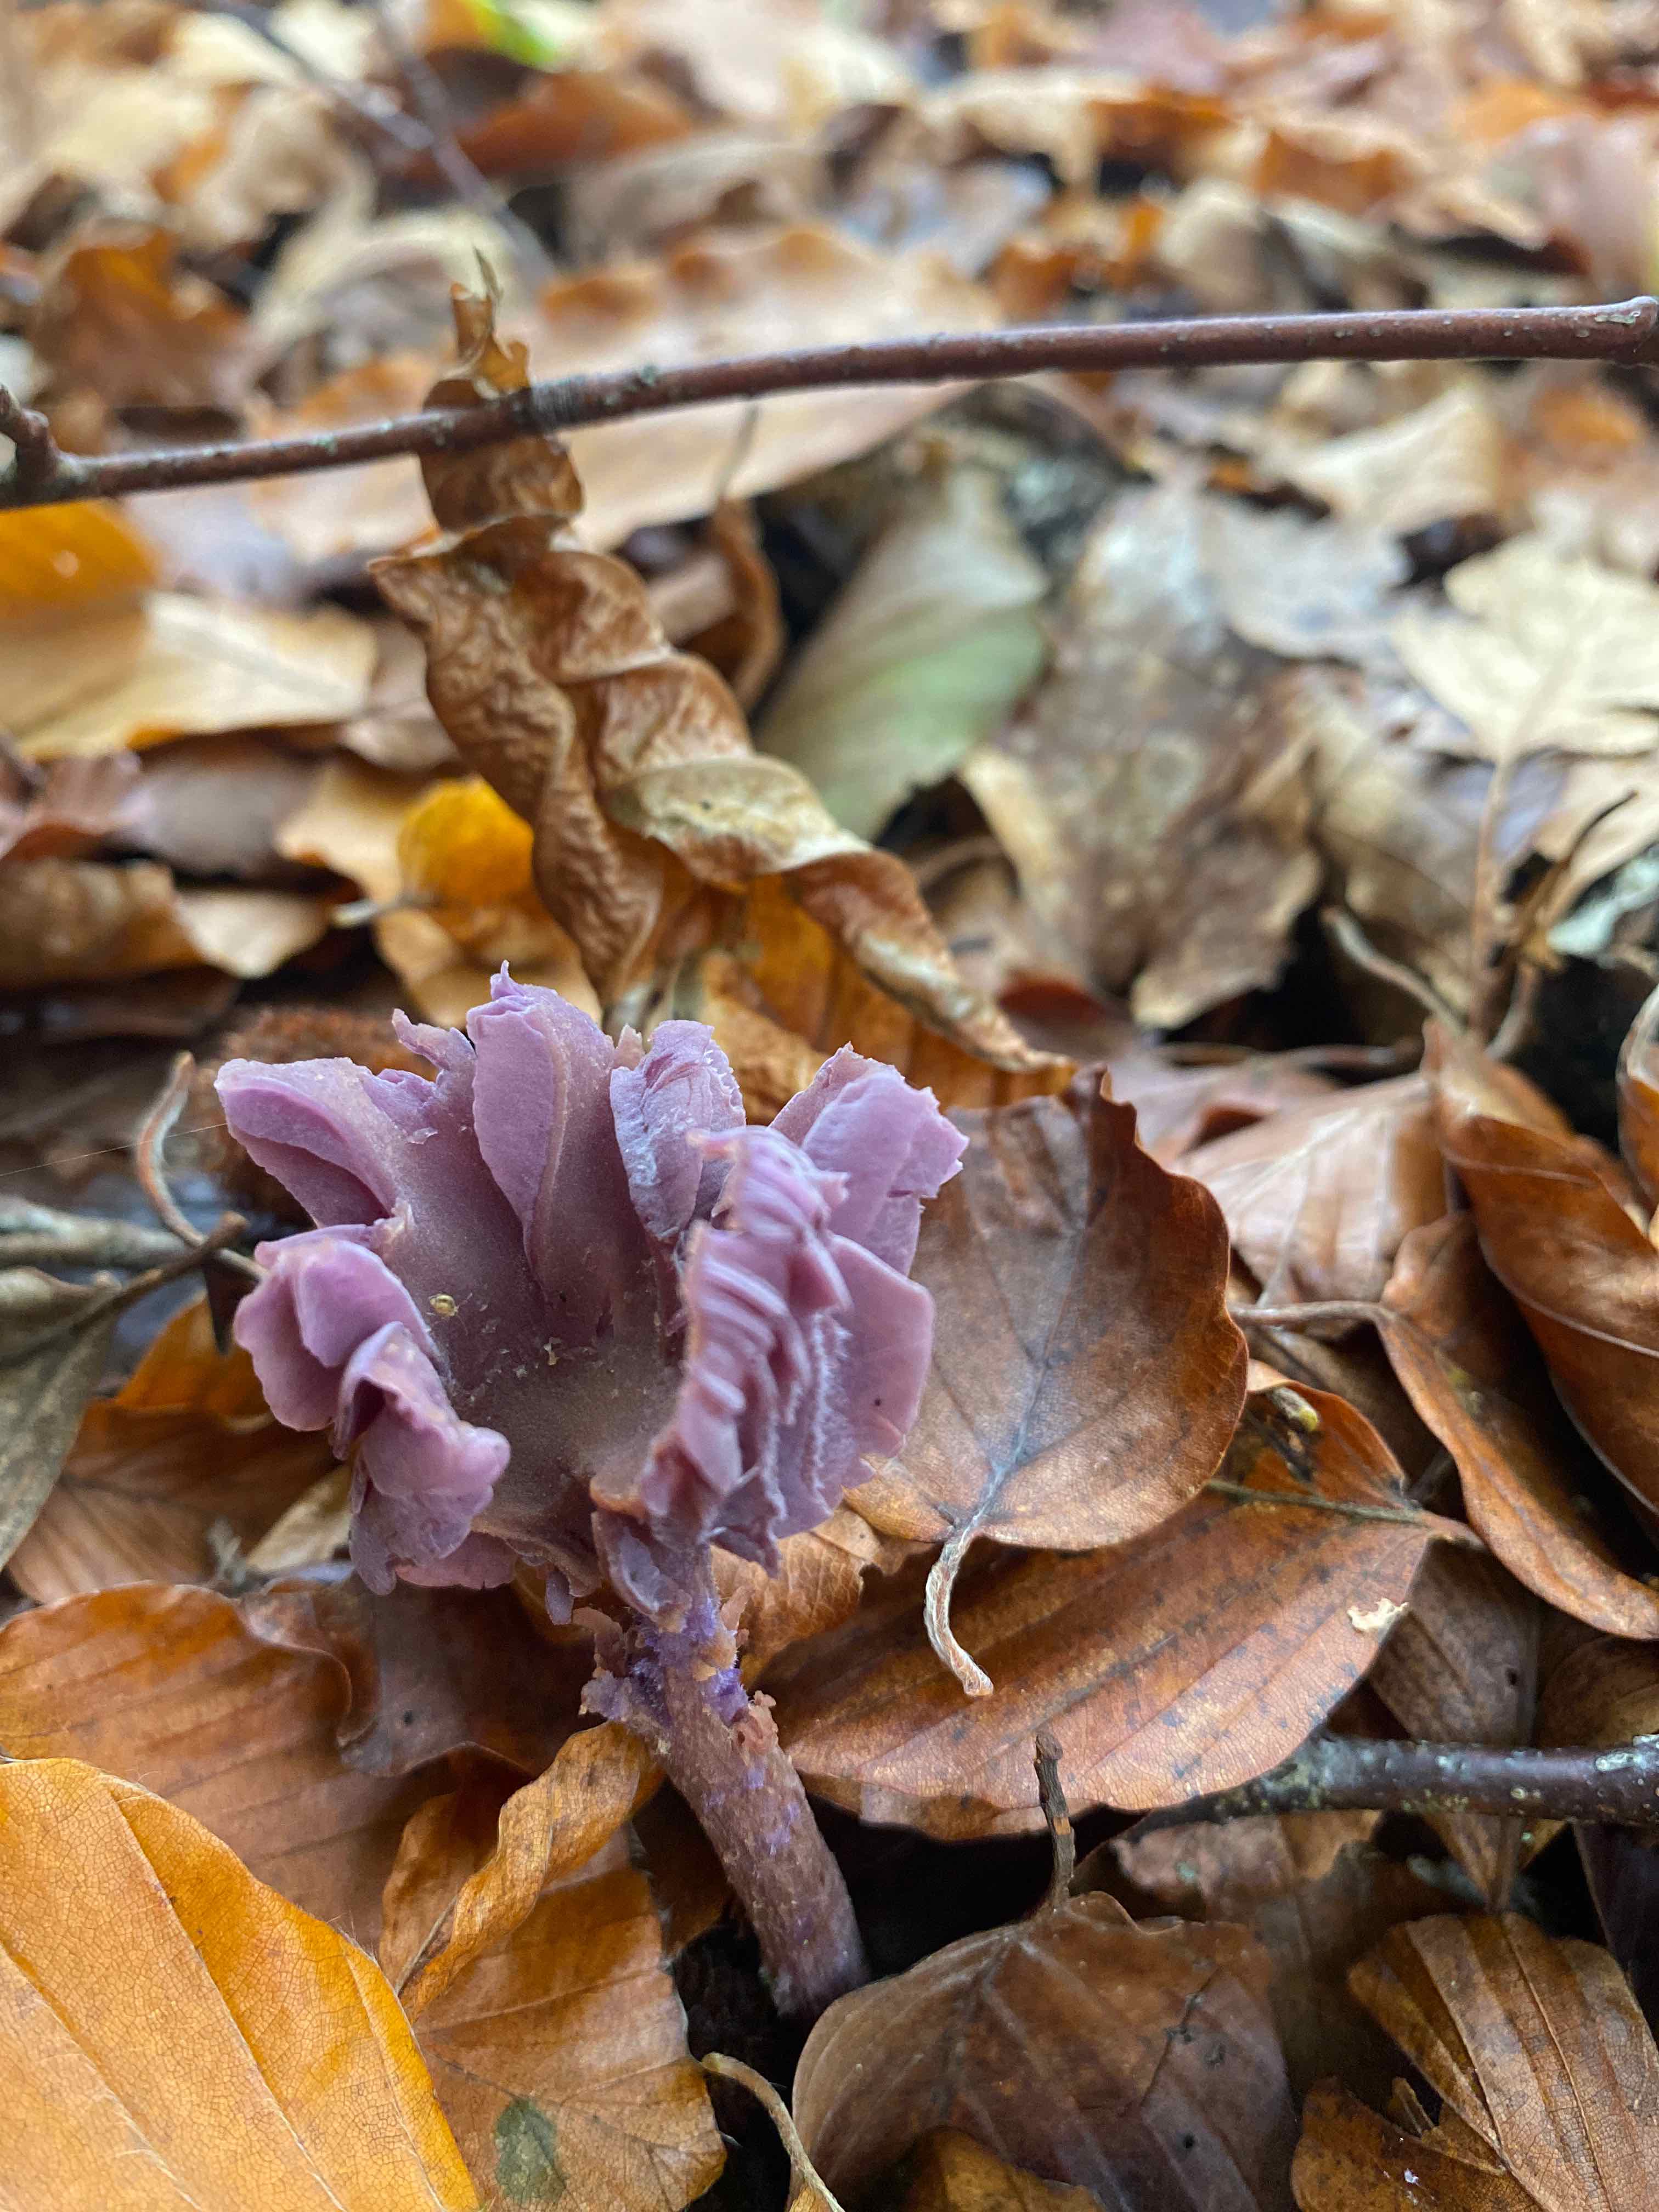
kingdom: Fungi
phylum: Basidiomycota
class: Agaricomycetes
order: Agaricales
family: Hydnangiaceae
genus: Laccaria
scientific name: Laccaria amethystina
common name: violet ametysthat
